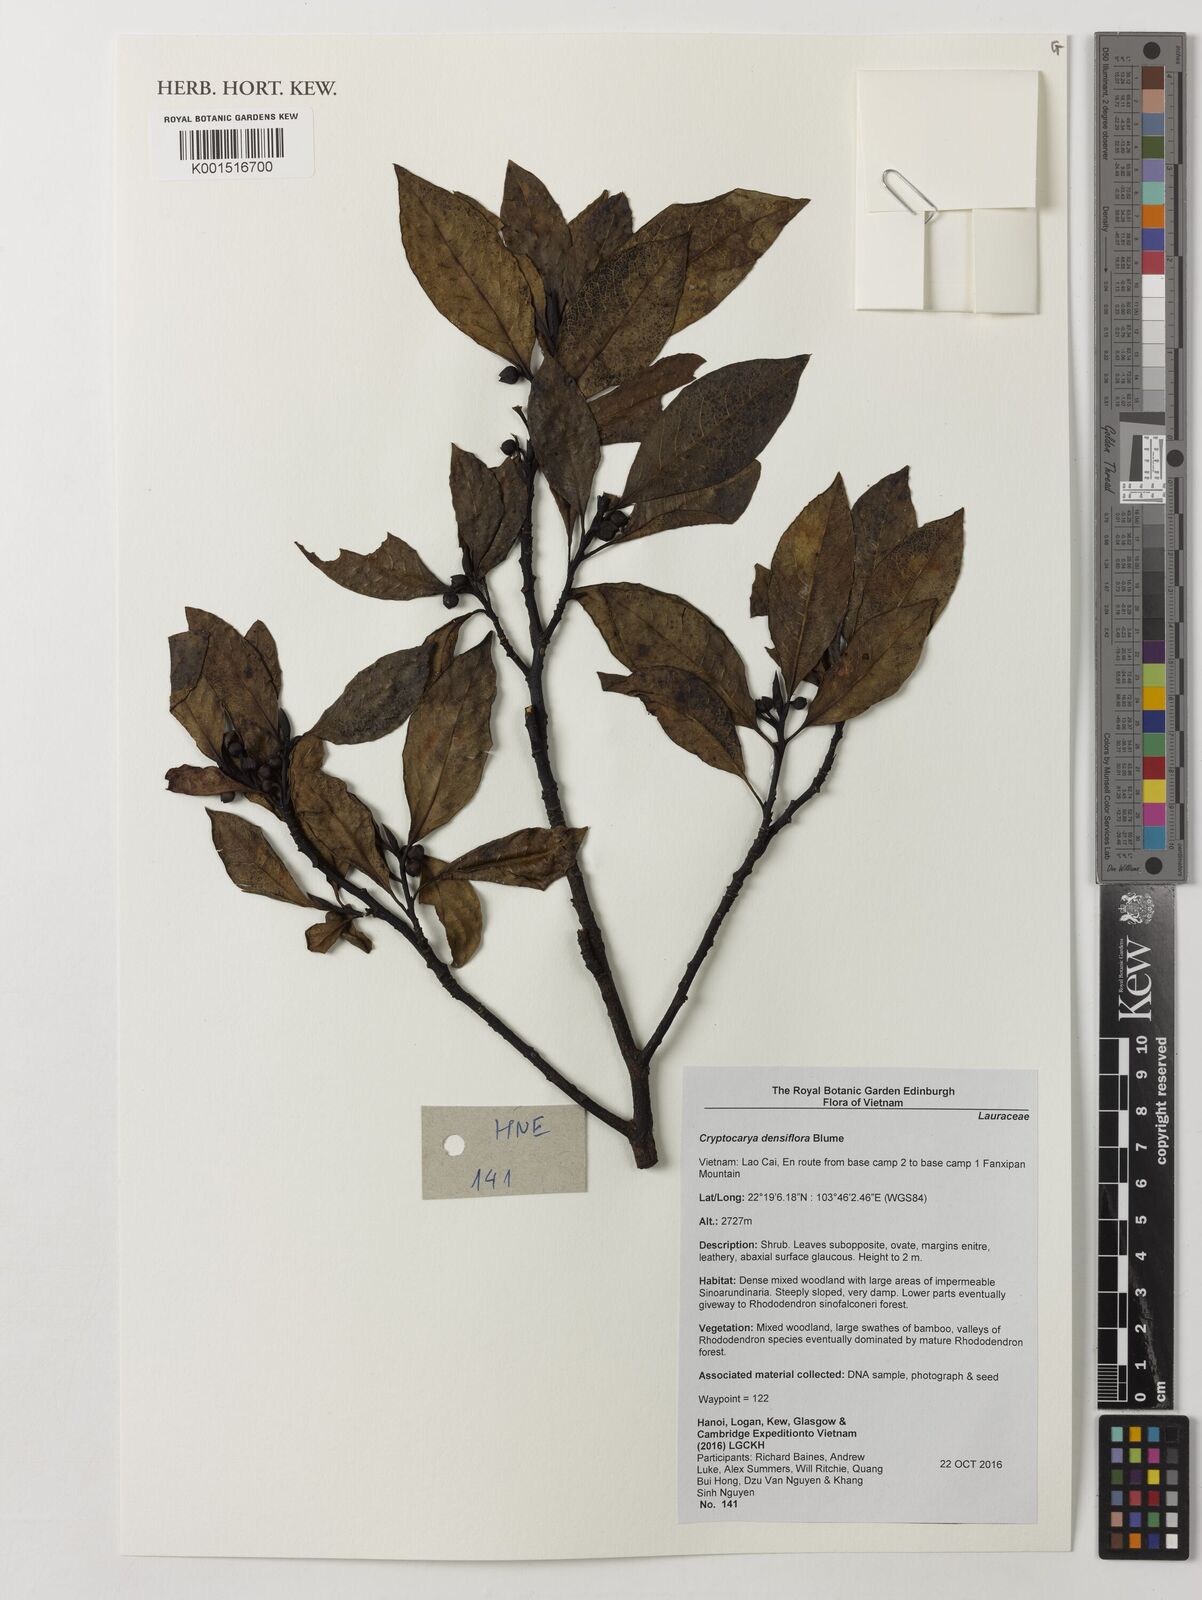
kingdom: Plantae
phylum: Tracheophyta
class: Magnoliopsida
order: Laurales
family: Lauraceae
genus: Cryptocarya
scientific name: Cryptocarya densiflora
